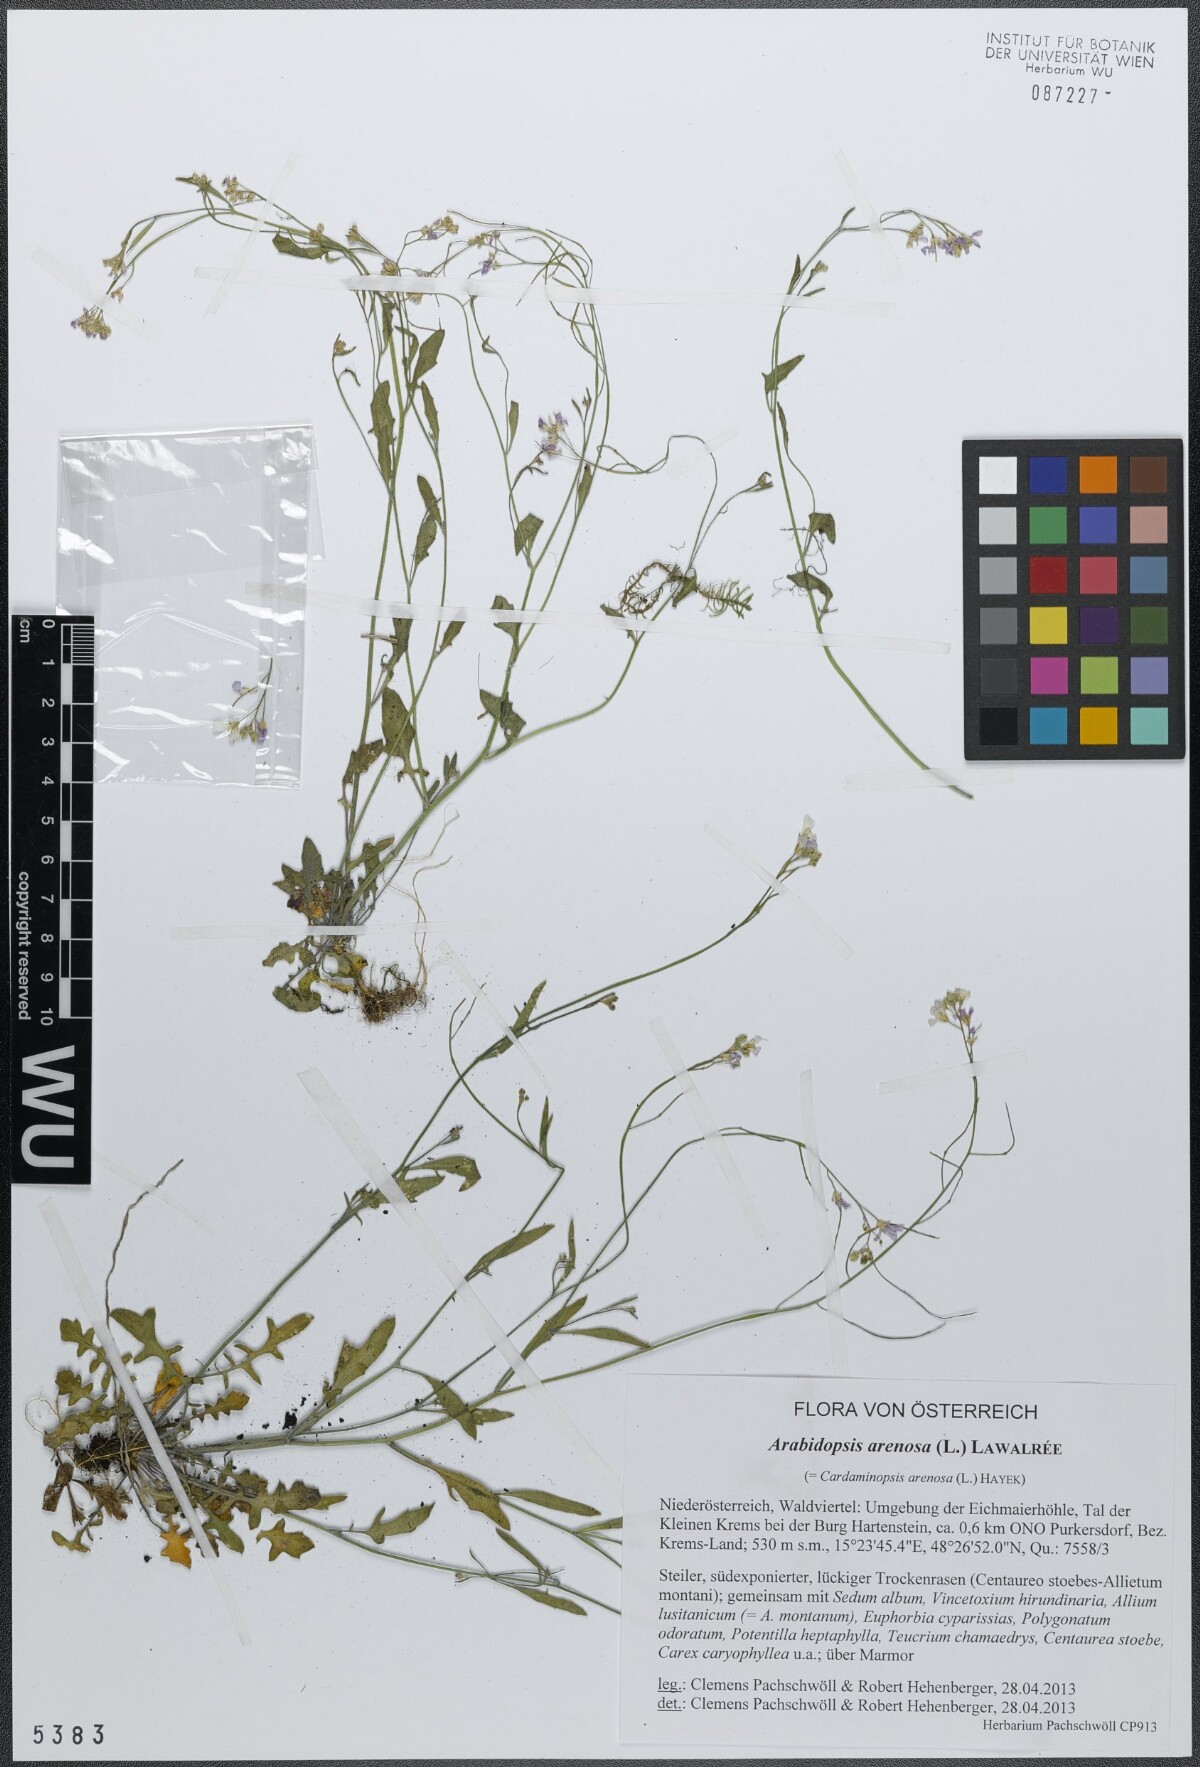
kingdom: Plantae
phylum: Tracheophyta
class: Magnoliopsida
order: Brassicales
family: Brassicaceae
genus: Arabidopsis
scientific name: Arabidopsis arenosa
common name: Sand rock-cress
